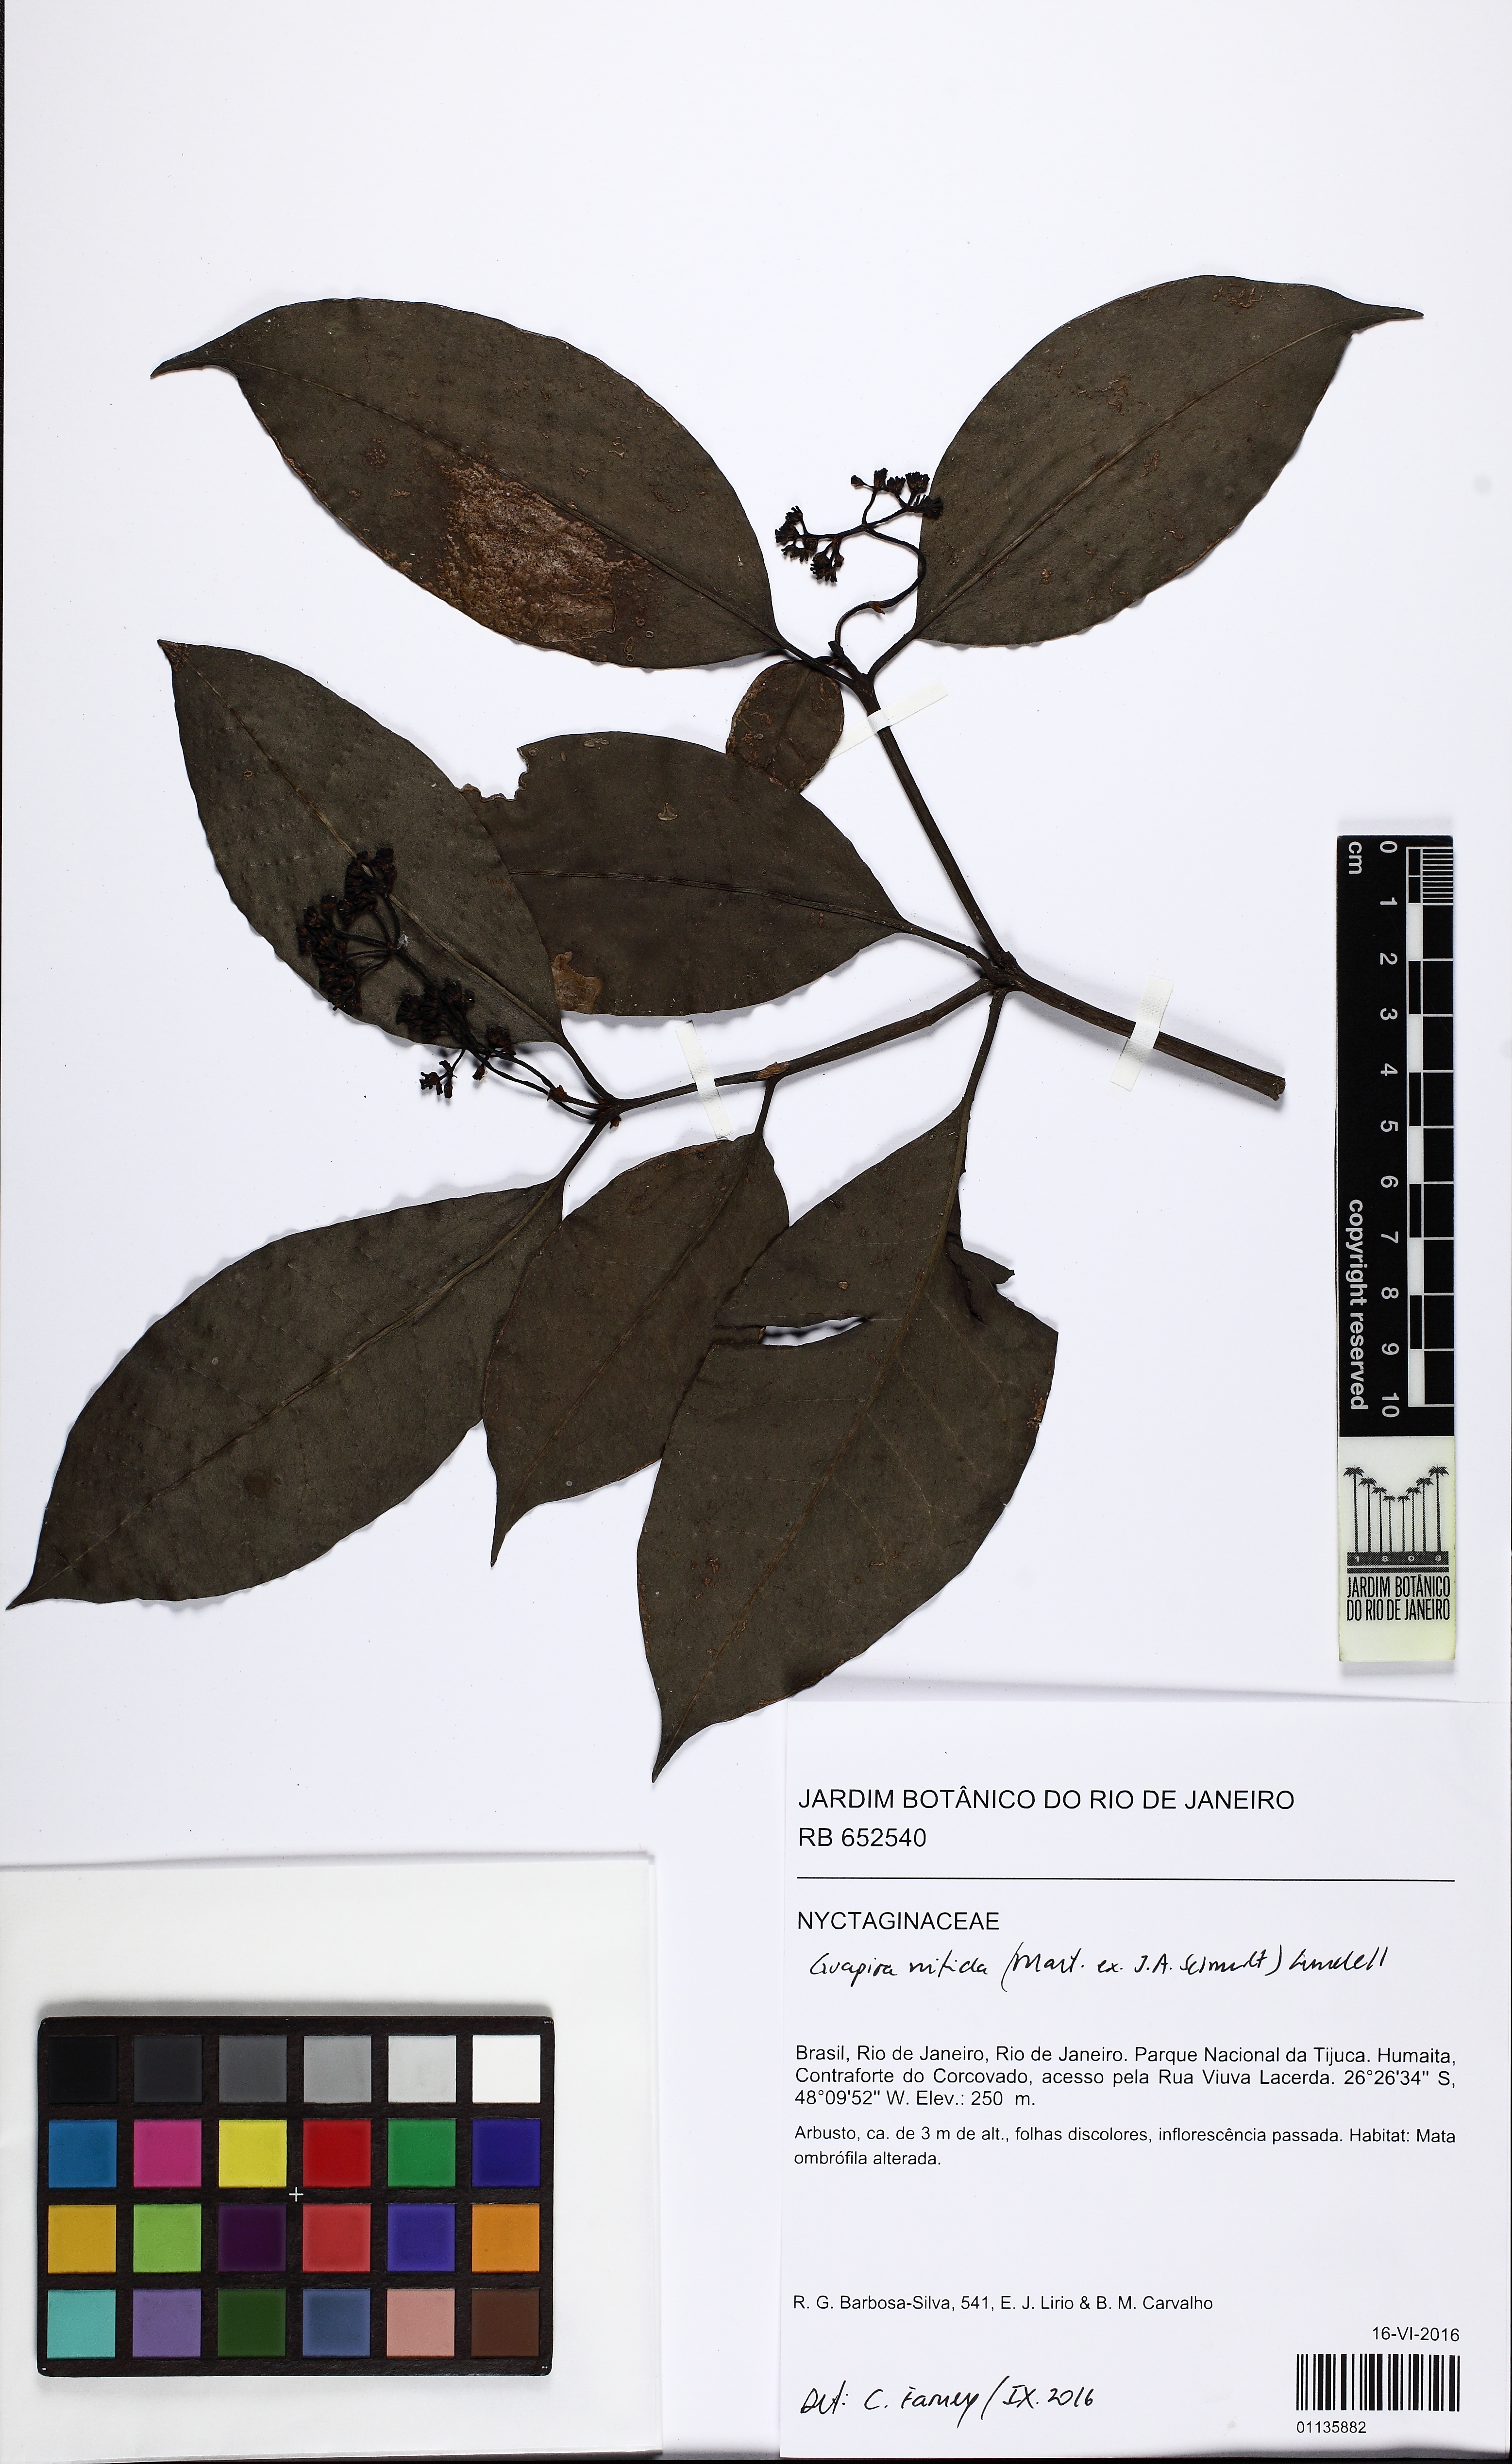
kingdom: Plantae
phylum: Tracheophyta
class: Magnoliopsida
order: Caryophyllales
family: Nyctaginaceae
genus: Guapira
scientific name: Guapira nitida
